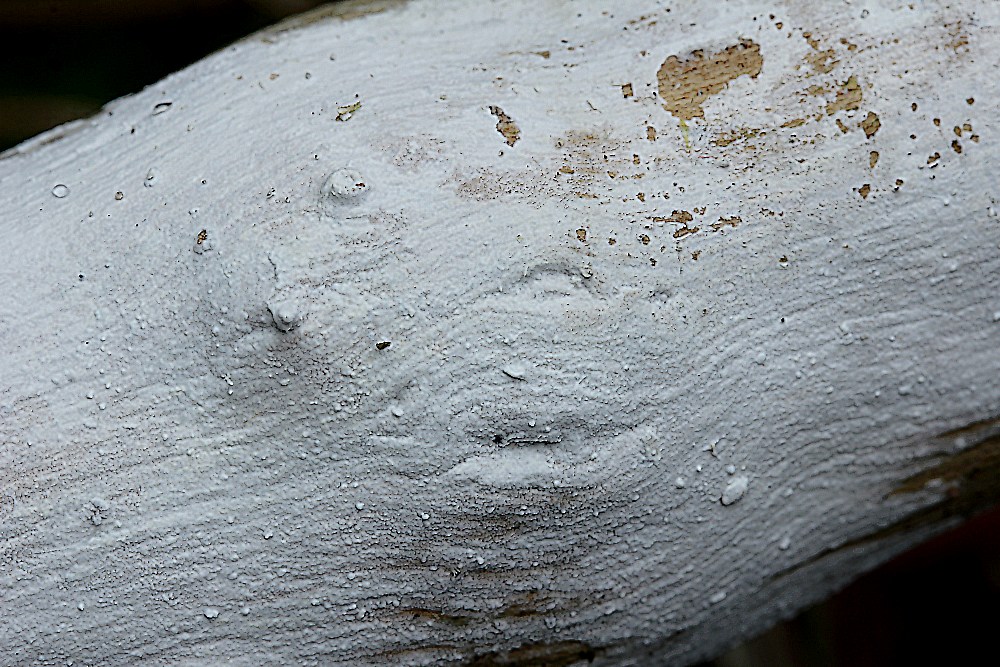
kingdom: Fungi
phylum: Basidiomycota
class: Agaricomycetes
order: Corticiales
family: Corticiaceae
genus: Lyomyces
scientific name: Lyomyces
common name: hyldehinde
